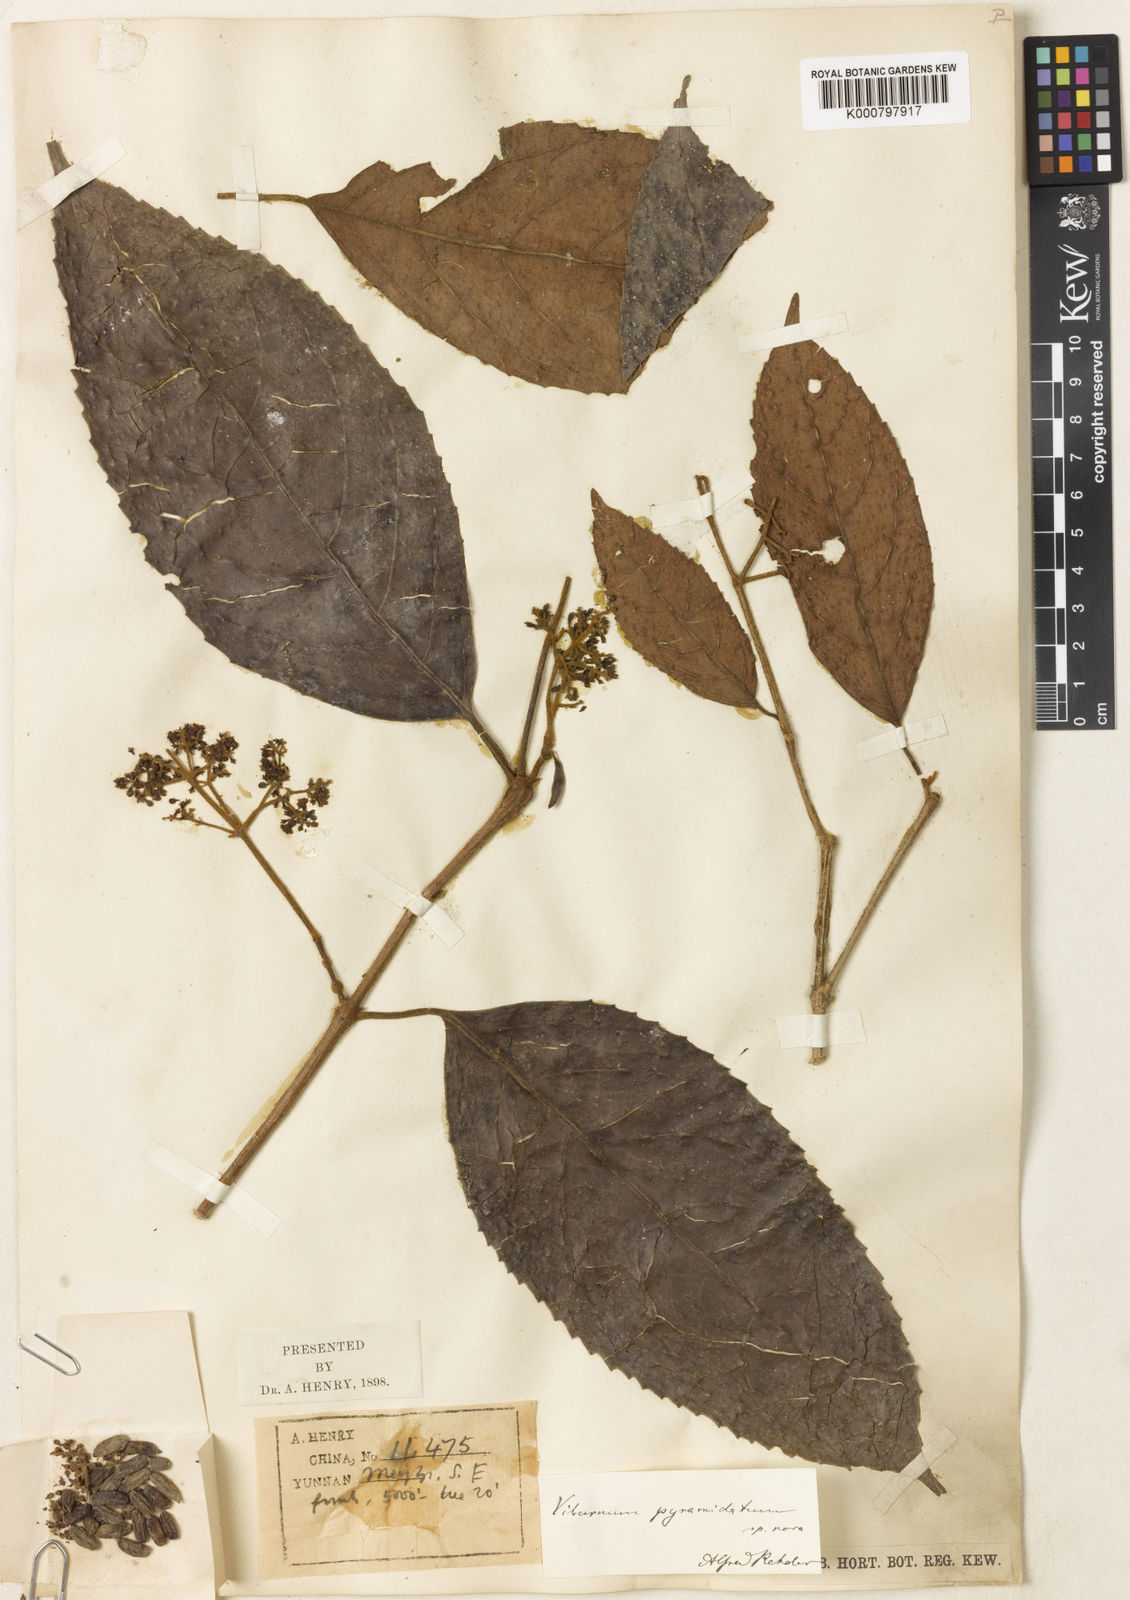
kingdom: Plantae
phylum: Tracheophyta
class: Magnoliopsida
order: Dipsacales
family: Viburnaceae
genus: Viburnum
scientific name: Viburnum pyramidatum
